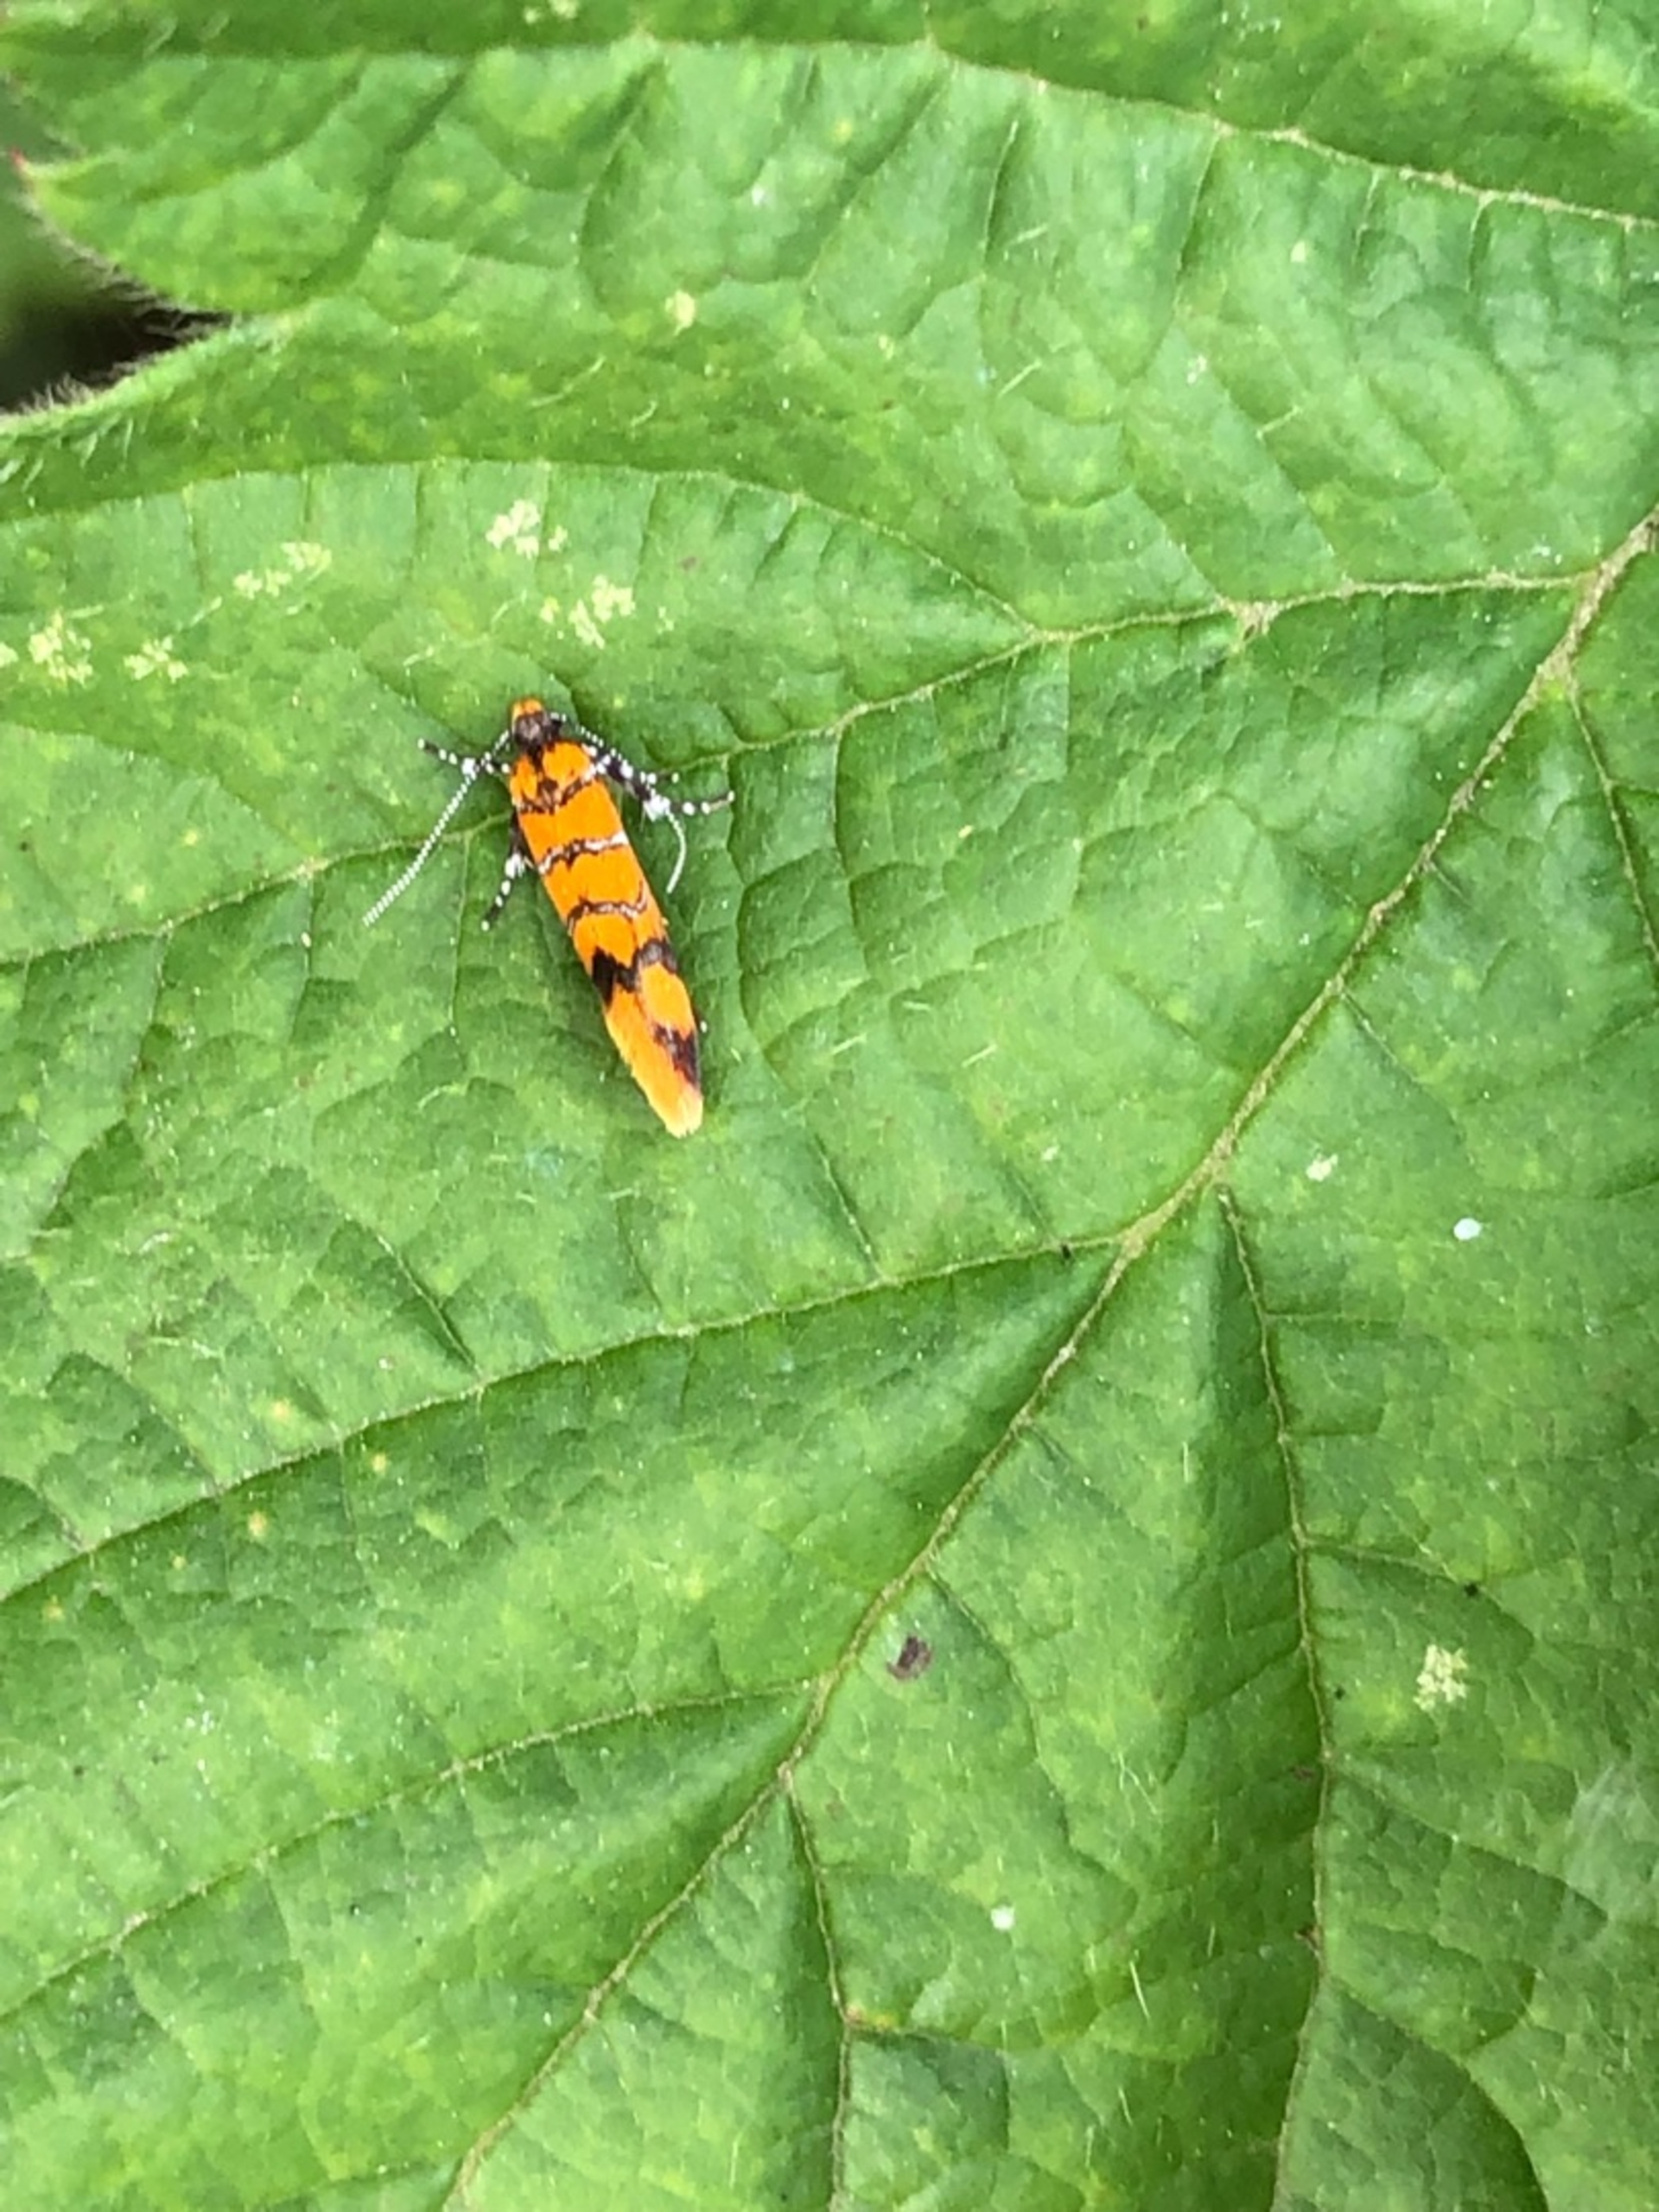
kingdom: Animalia
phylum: Arthropoda
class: Insecta
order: Lepidoptera
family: Oecophoridae
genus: Schiffermuelleria
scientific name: Schiffermuelleria procerella
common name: Hieroglyfprydvinge
